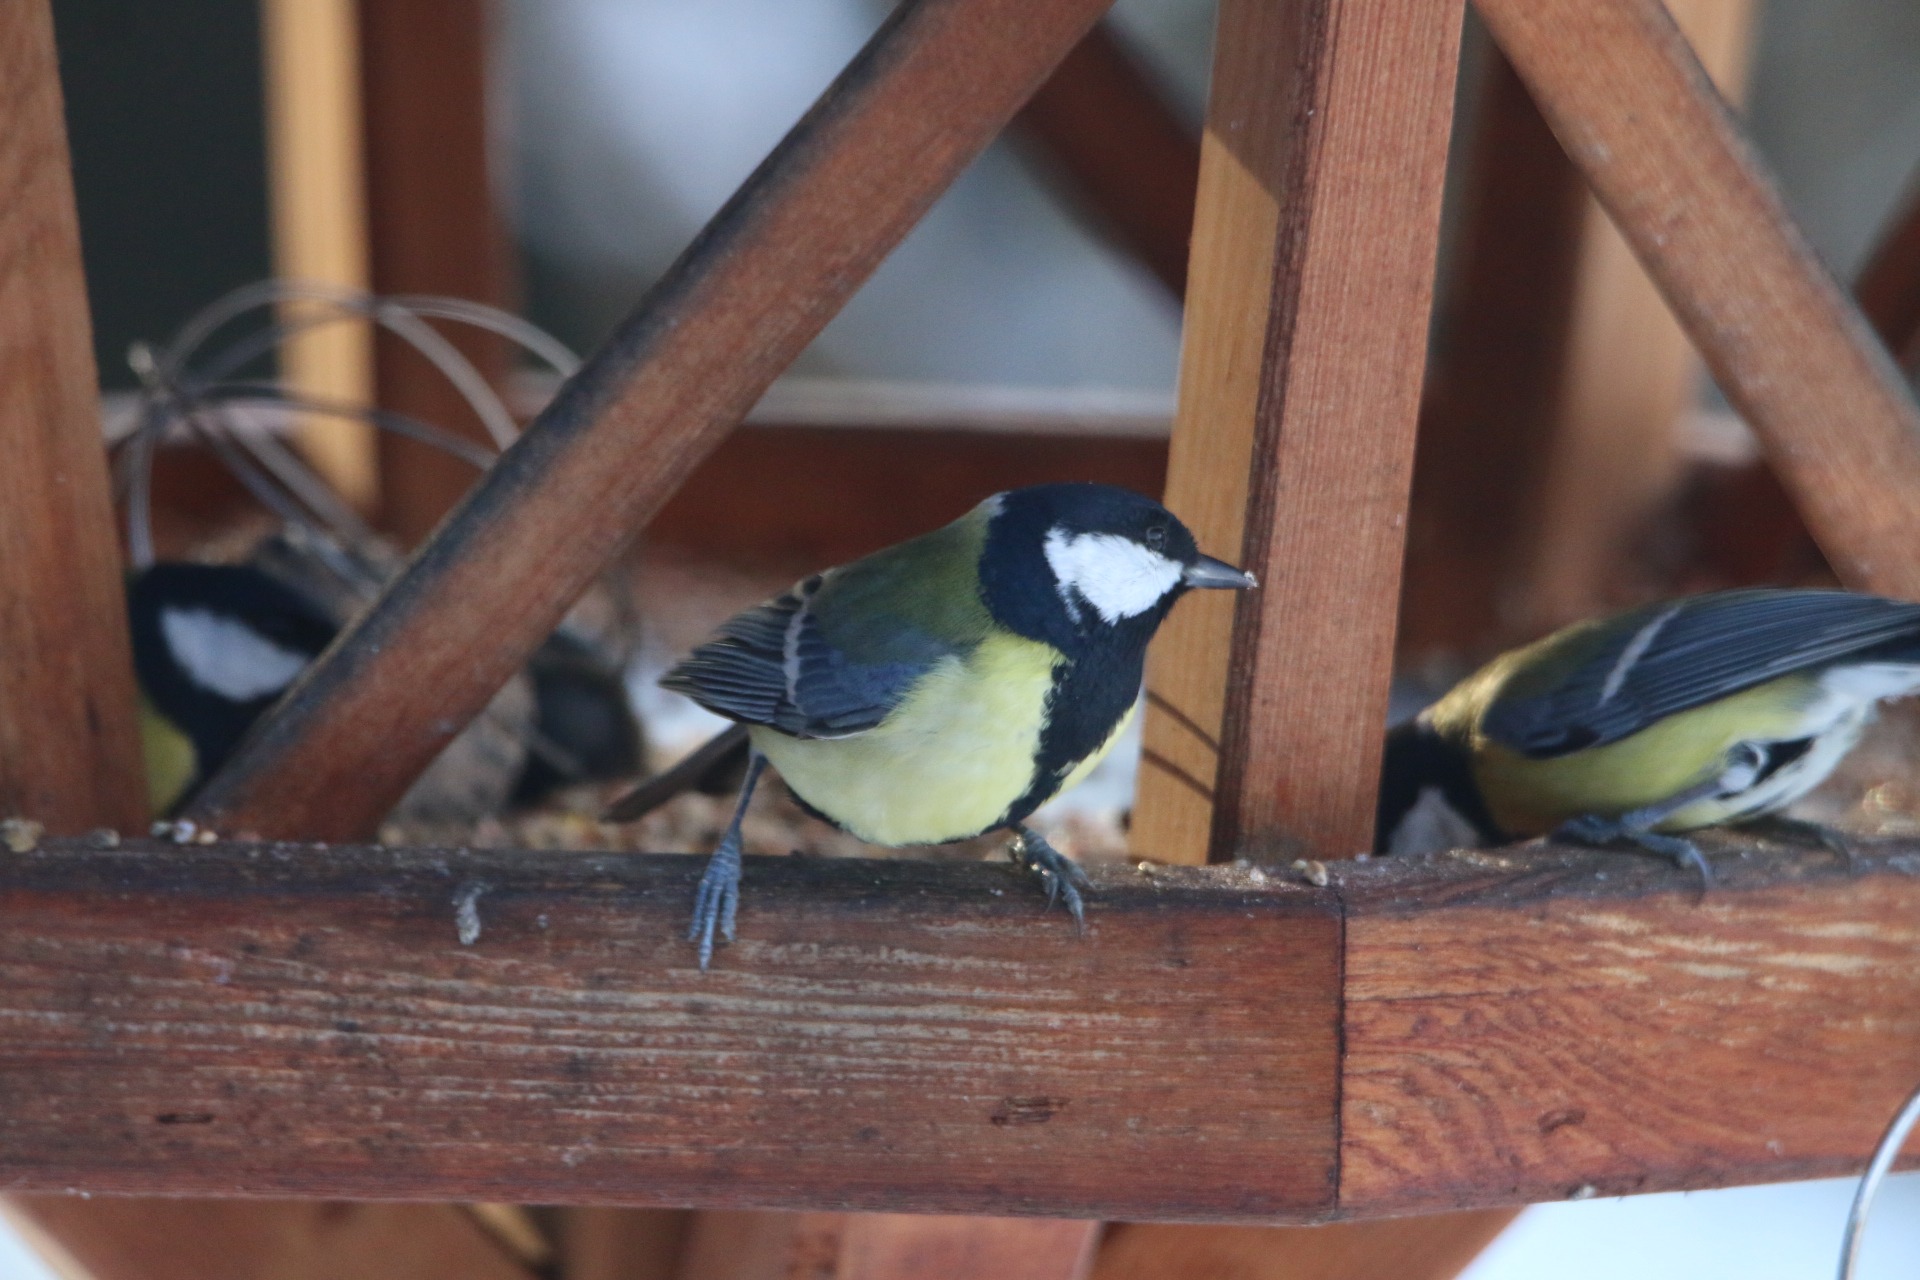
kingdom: Animalia
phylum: Chordata
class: Aves
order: Passeriformes
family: Paridae
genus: Parus
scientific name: Parus major
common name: Musvit
